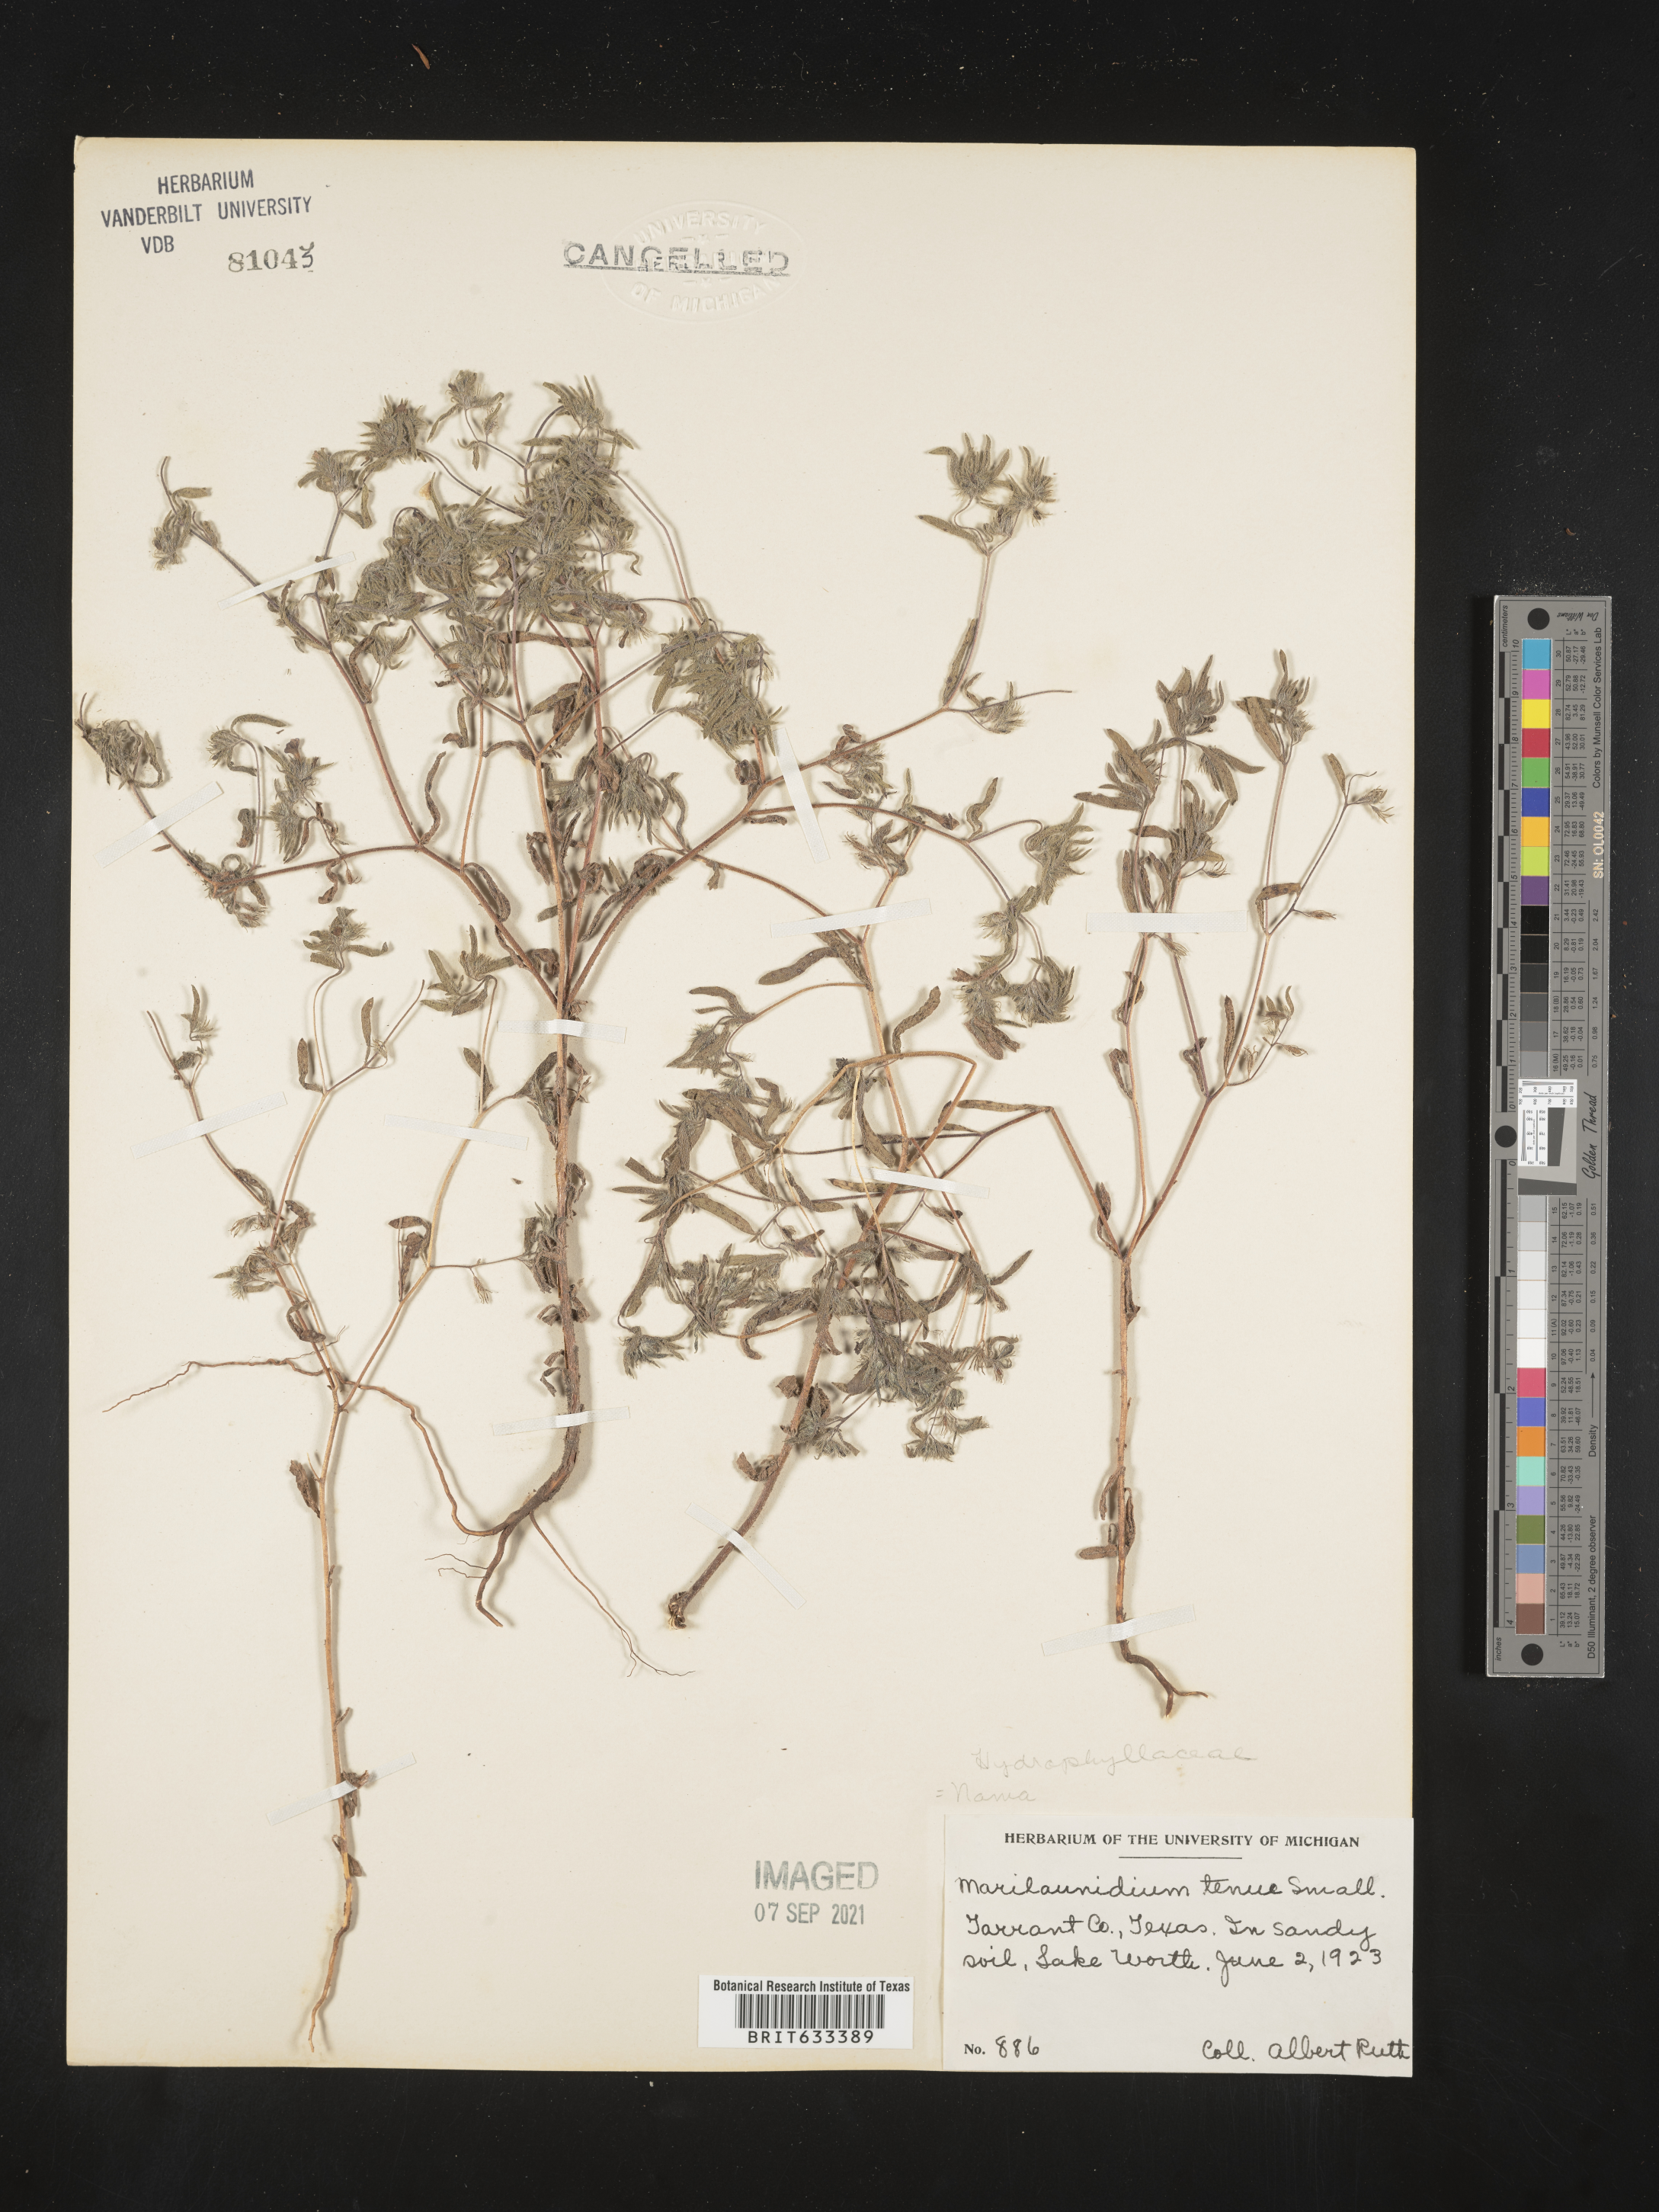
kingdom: Plantae
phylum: Tracheophyta
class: Magnoliopsida
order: Boraginales
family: Namaceae
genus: Nama
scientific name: Nama hispida
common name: Bristly nama
